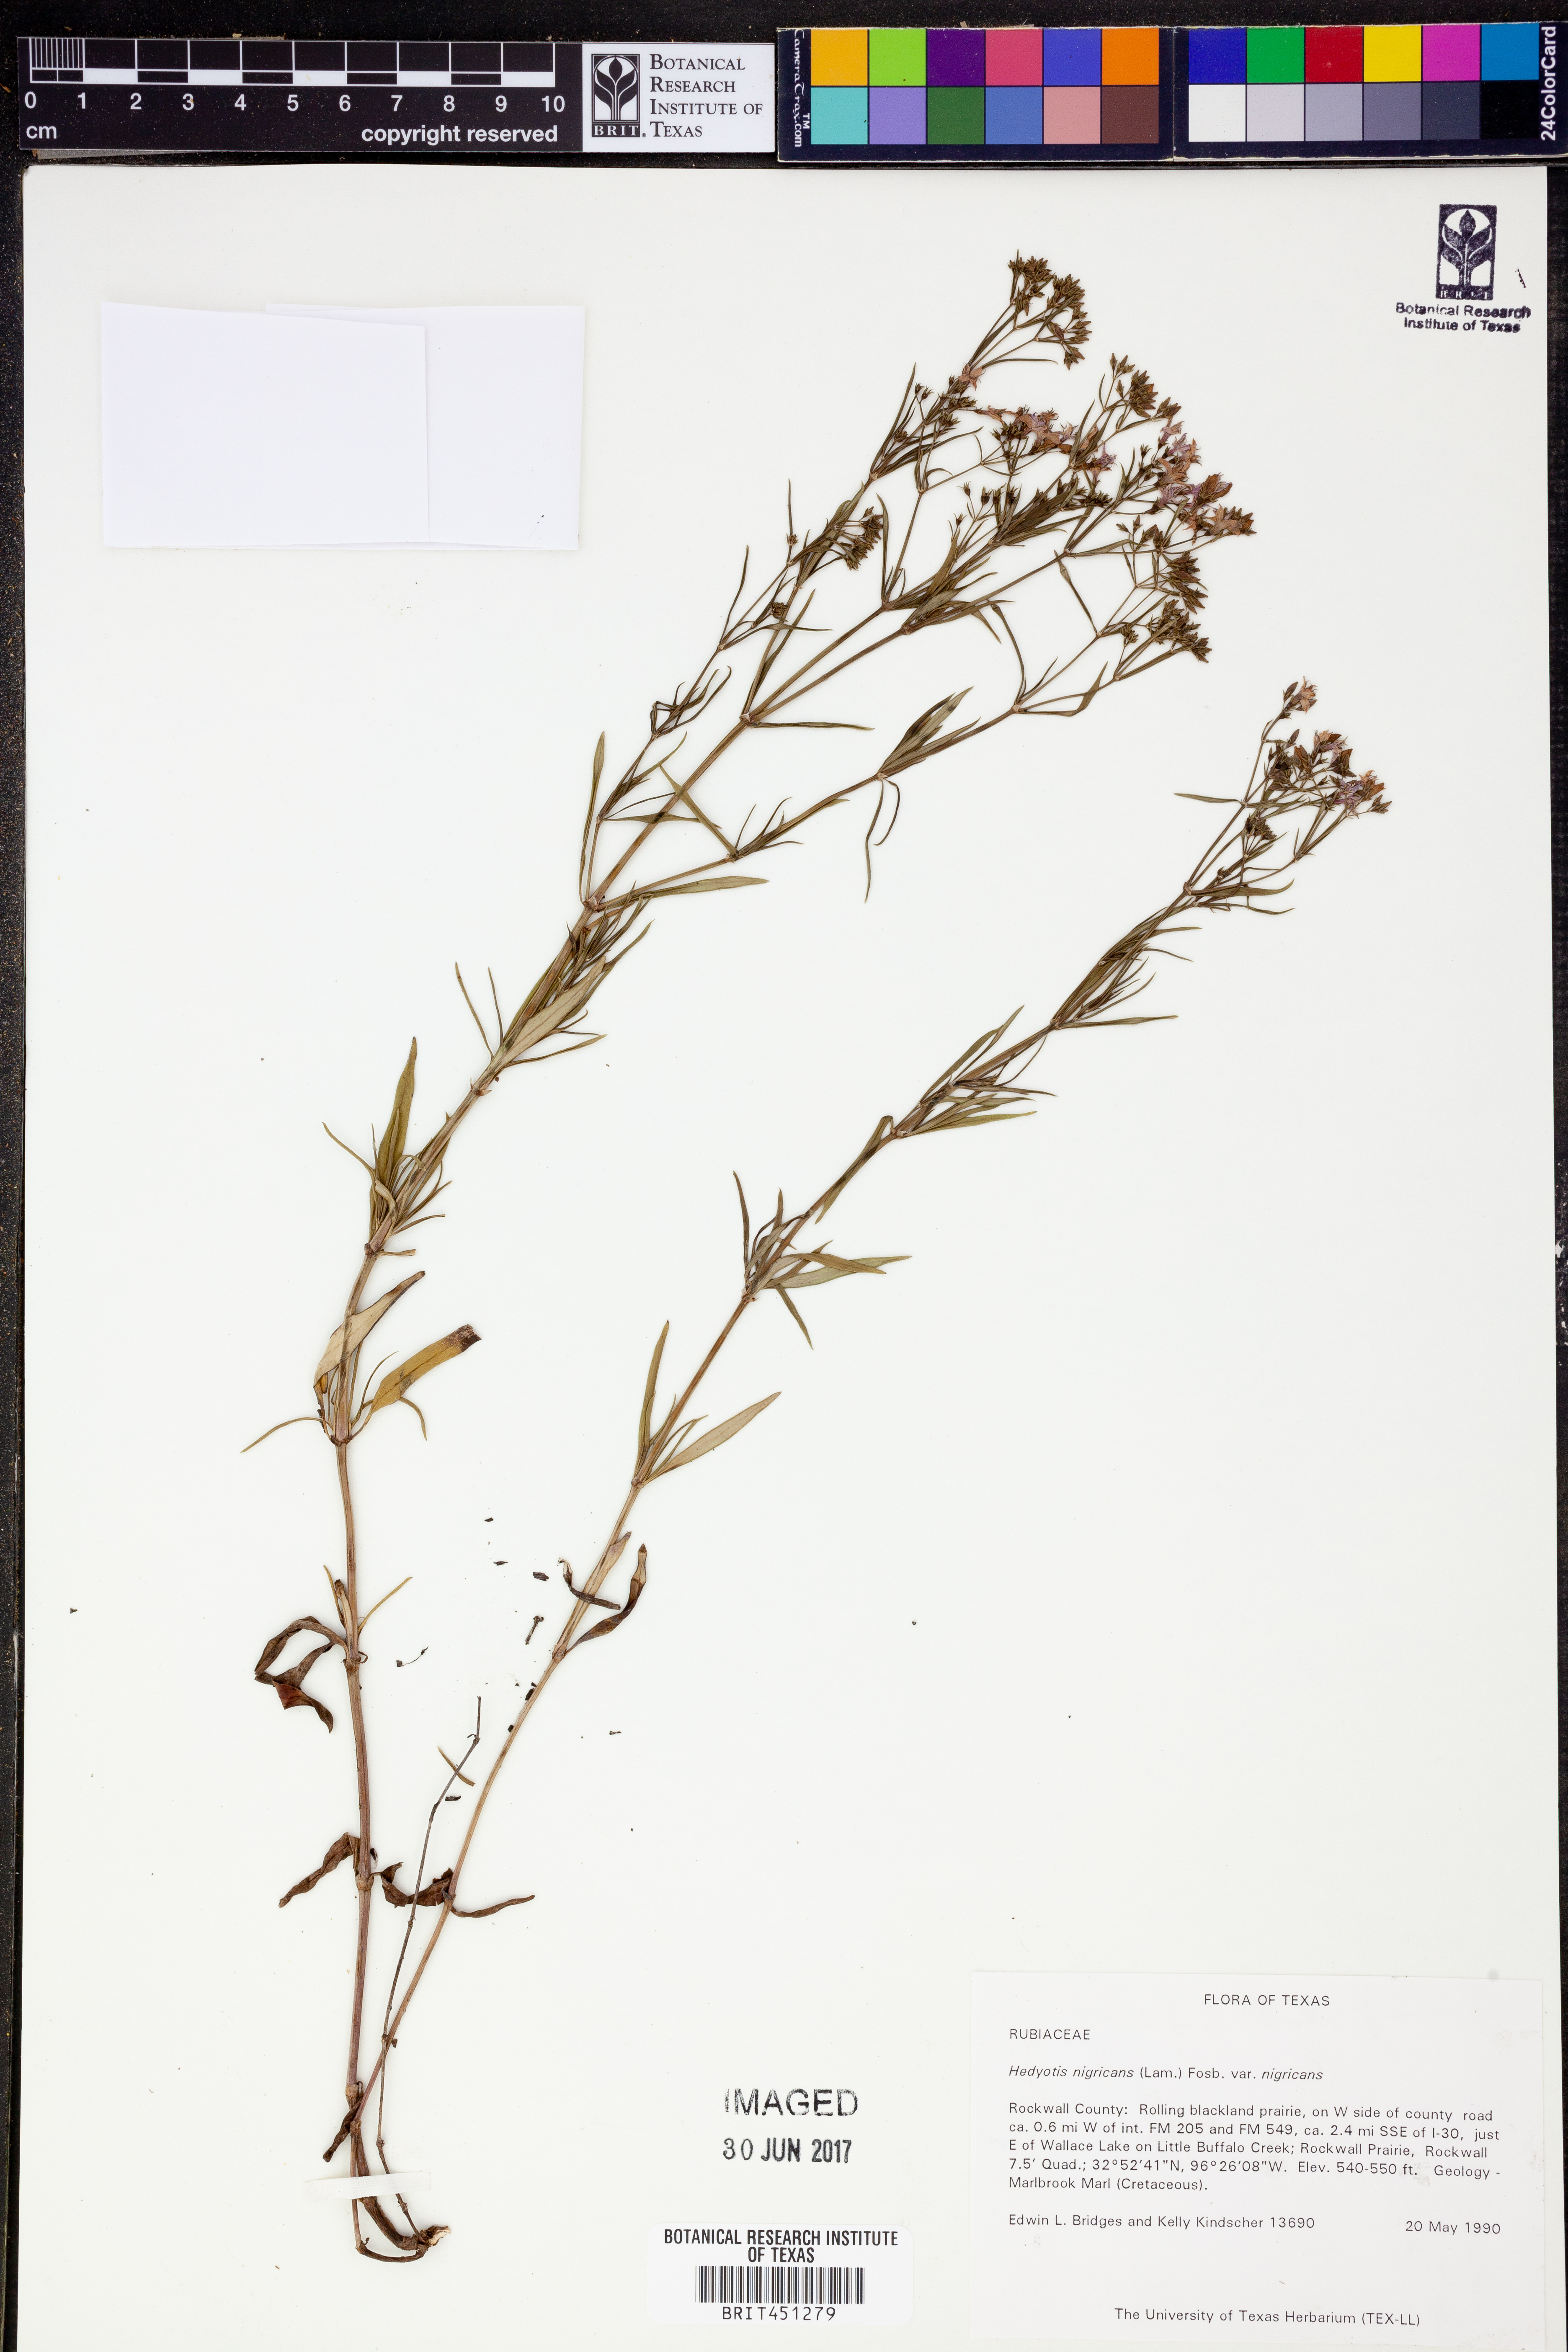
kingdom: Plantae
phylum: Tracheophyta
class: Magnoliopsida
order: Gentianales
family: Rubiaceae
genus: Stenaria
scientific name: Stenaria nigricans
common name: Diamondflowers
